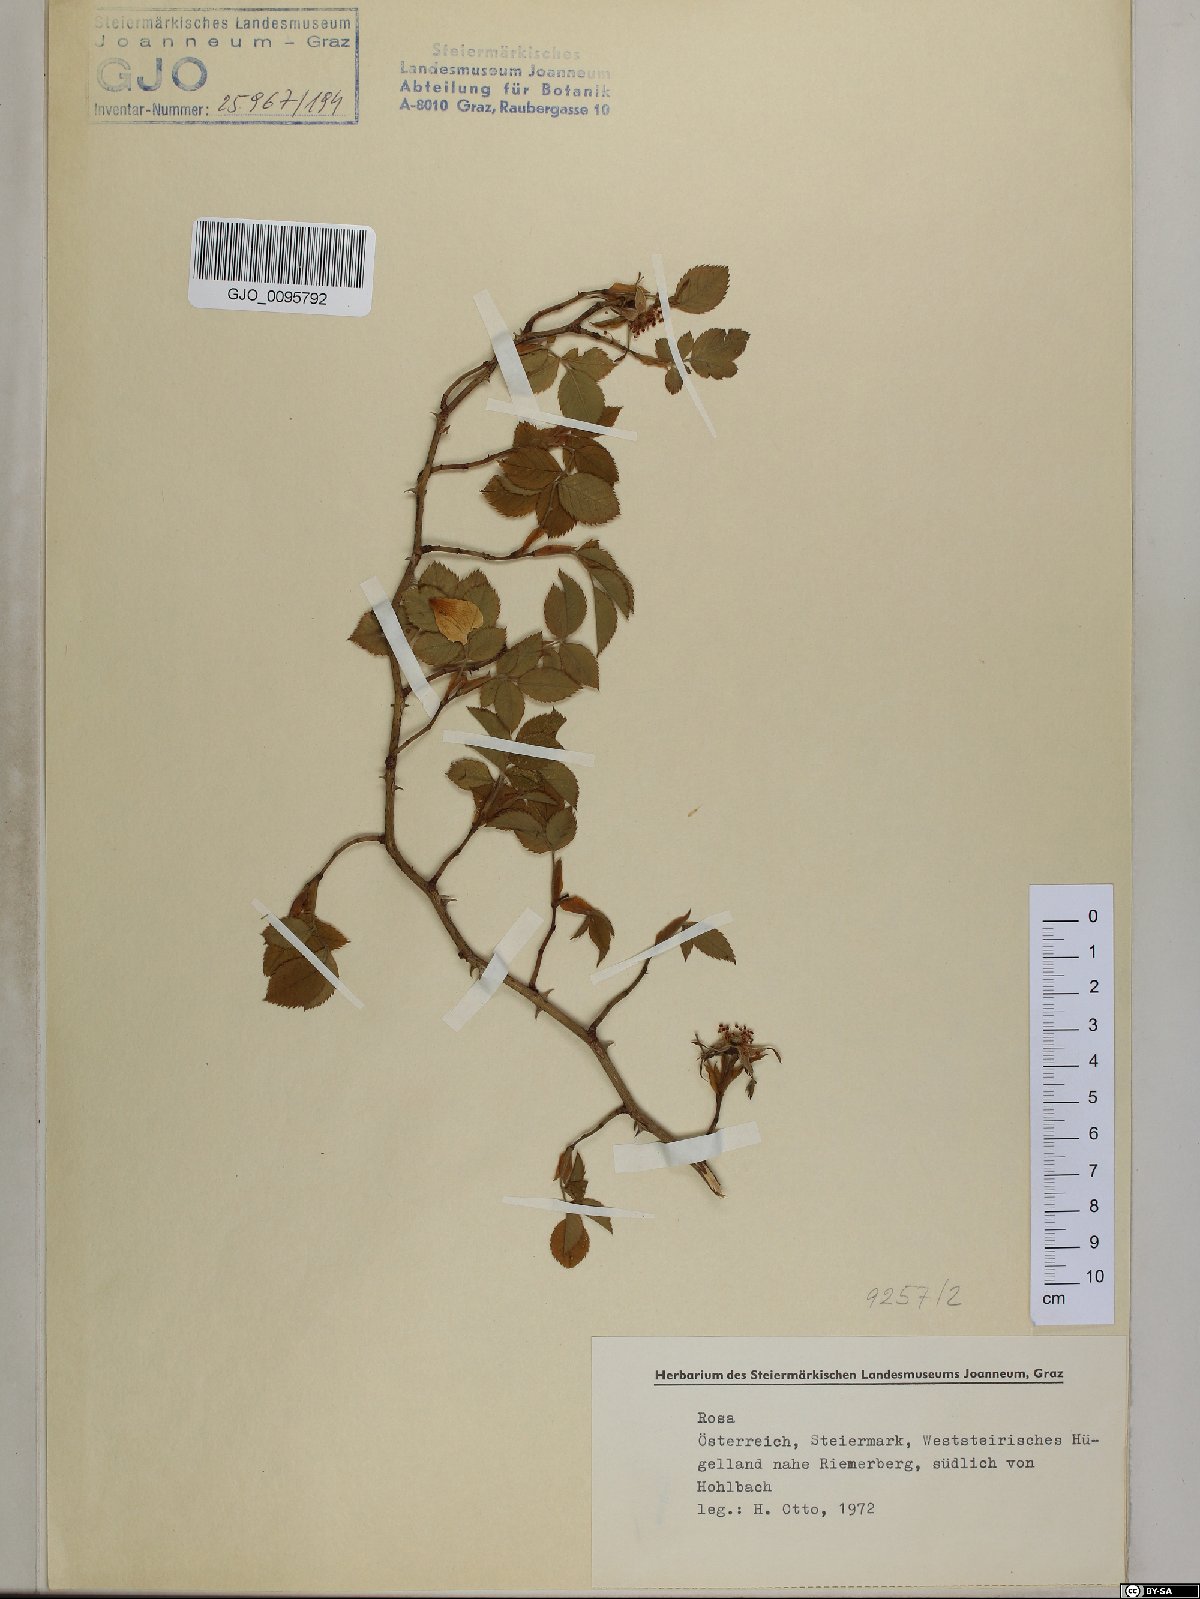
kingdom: Plantae
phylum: Tracheophyta
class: Magnoliopsida
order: Rosales
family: Rosaceae
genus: Rosa
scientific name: Rosa
